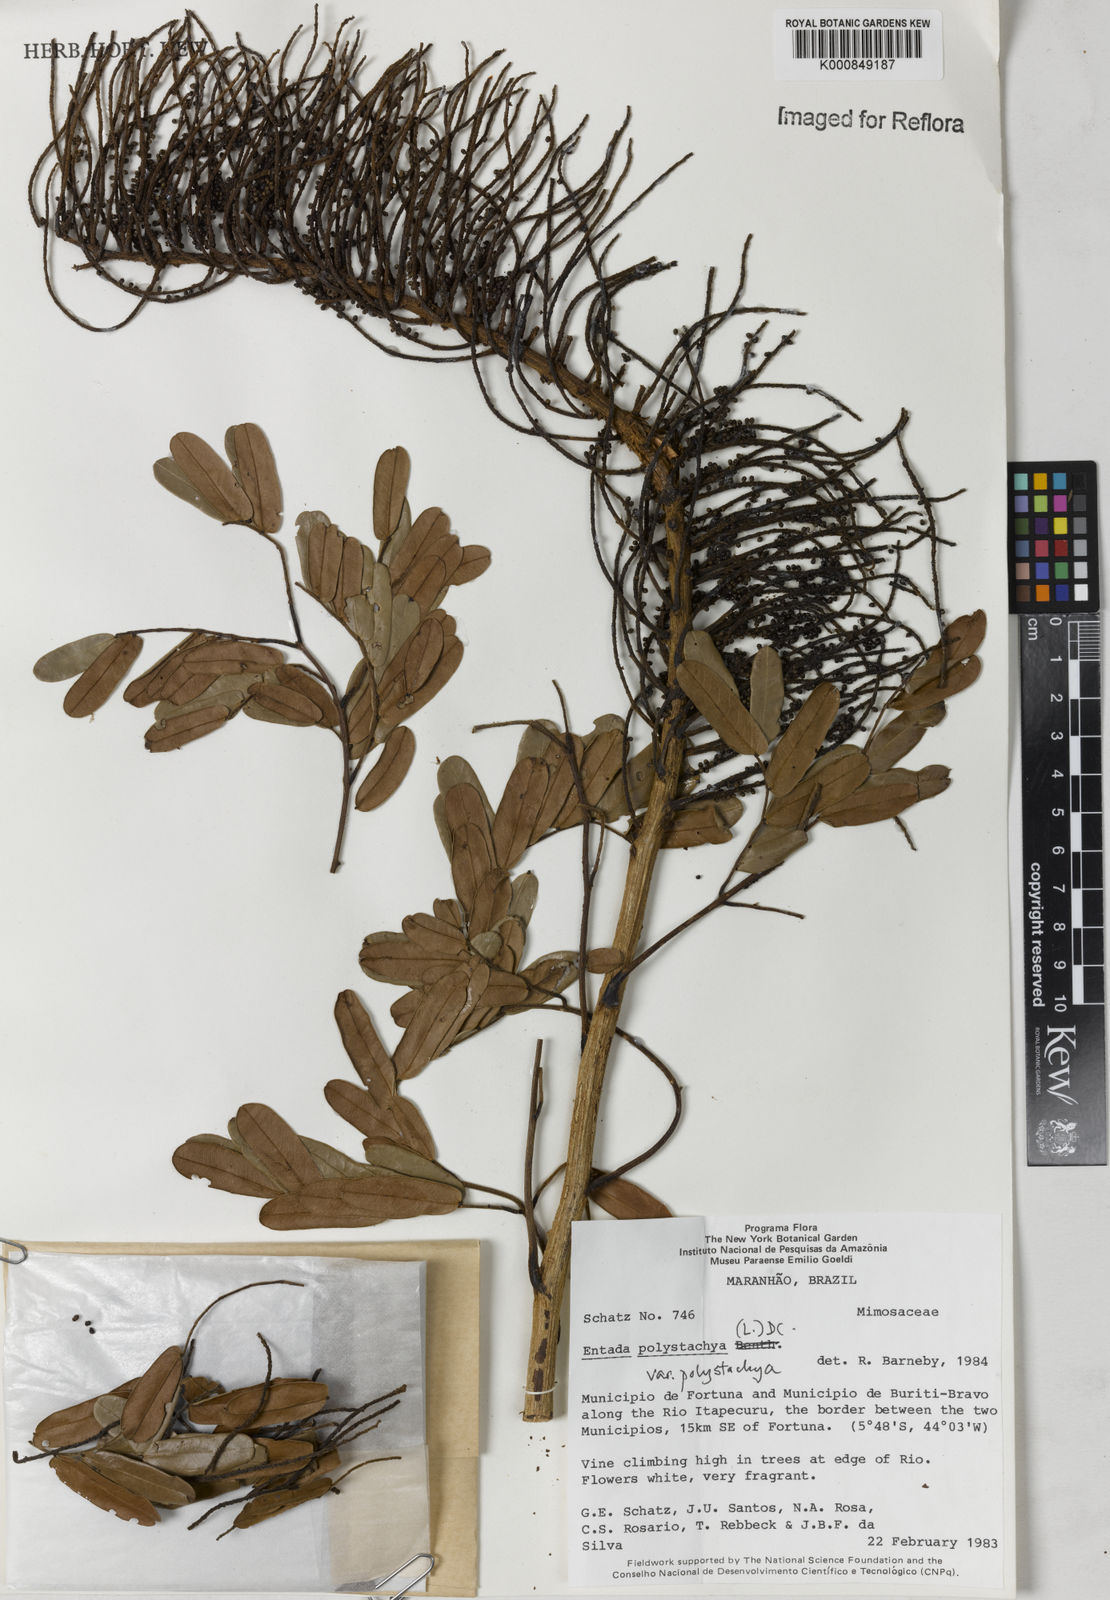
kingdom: Plantae
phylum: Tracheophyta
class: Magnoliopsida
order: Fabales
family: Fabaceae
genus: Entada
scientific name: Entada polystachya
